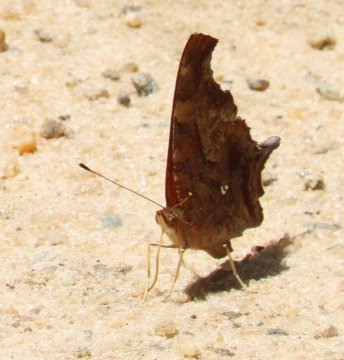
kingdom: Animalia
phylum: Arthropoda
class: Insecta
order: Lepidoptera
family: Nymphalidae
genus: Polygonia
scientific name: Polygonia interrogationis
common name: Question Mark
